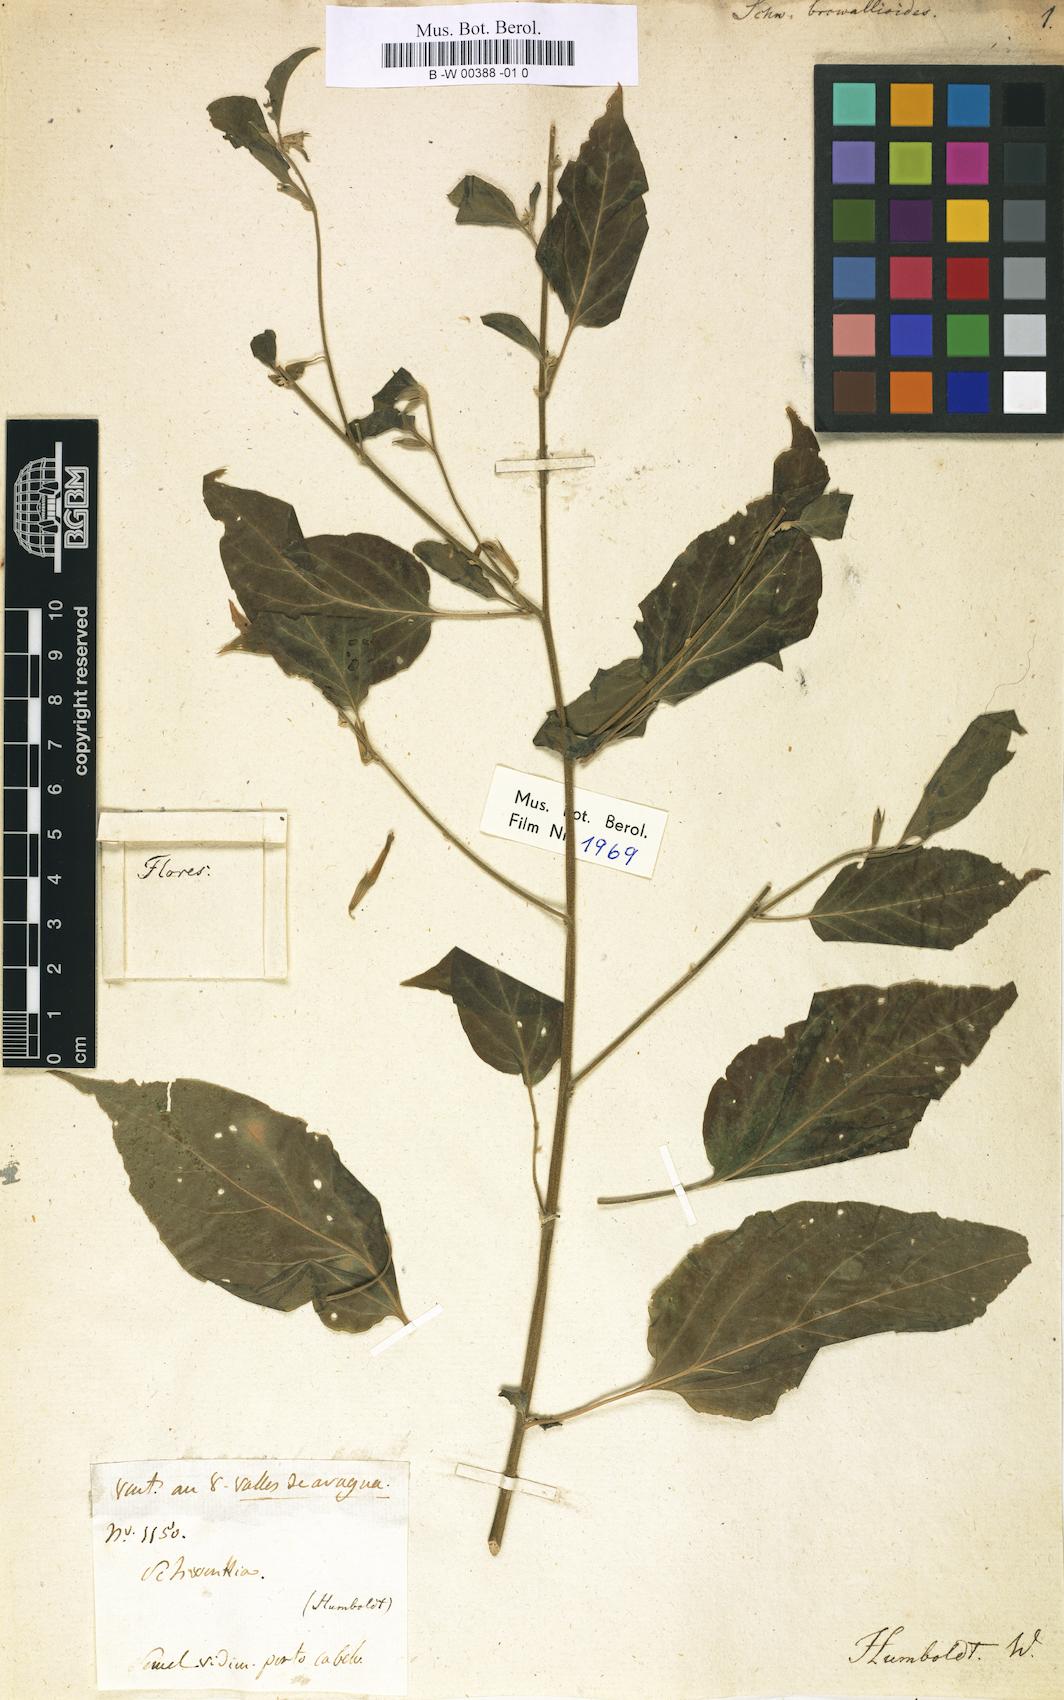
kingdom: Plantae
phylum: Tracheophyta
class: Magnoliopsida
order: Solanales
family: Solanaceae
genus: Schwenckia
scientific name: Schwenckia lateriflora
